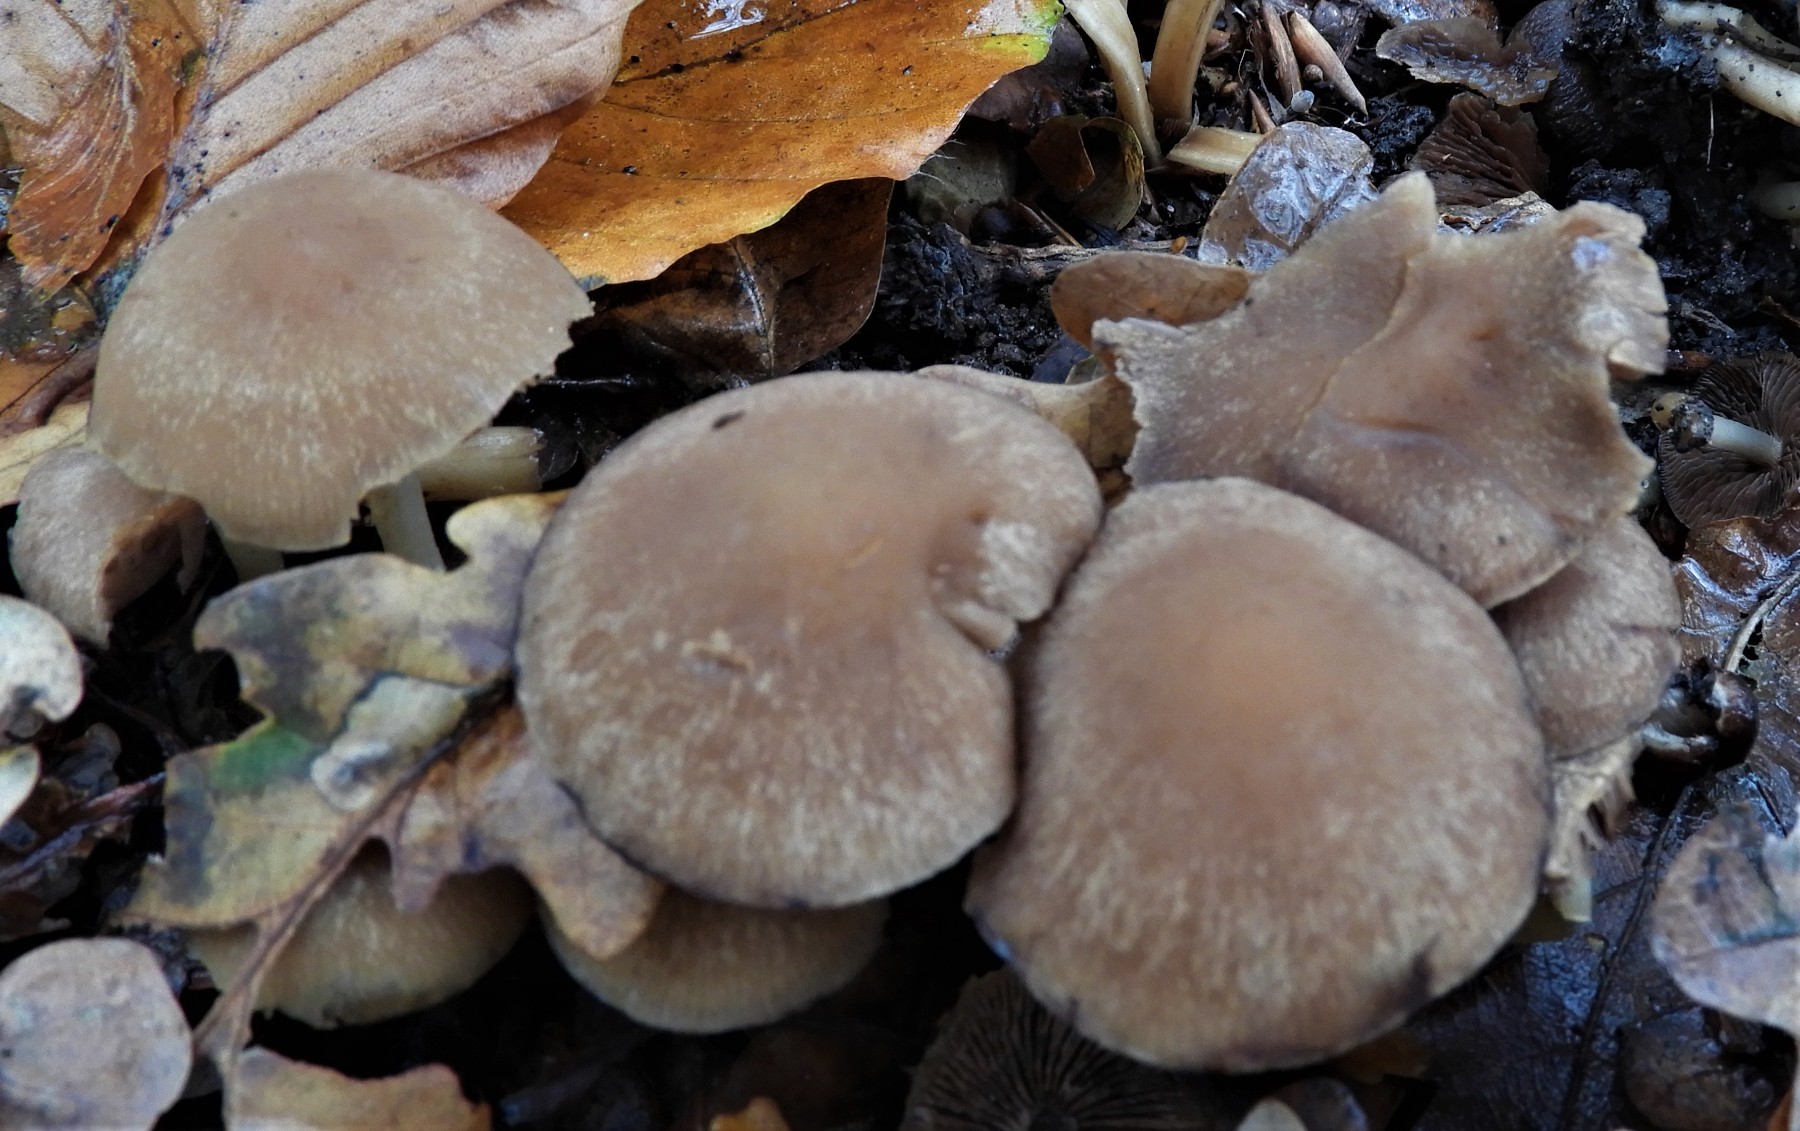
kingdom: Fungi
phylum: Basidiomycota
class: Agaricomycetes
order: Agaricales
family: Psathyrellaceae
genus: Psathyrella
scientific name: Psathyrella piluliformis
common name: lysstokket mørkhat
